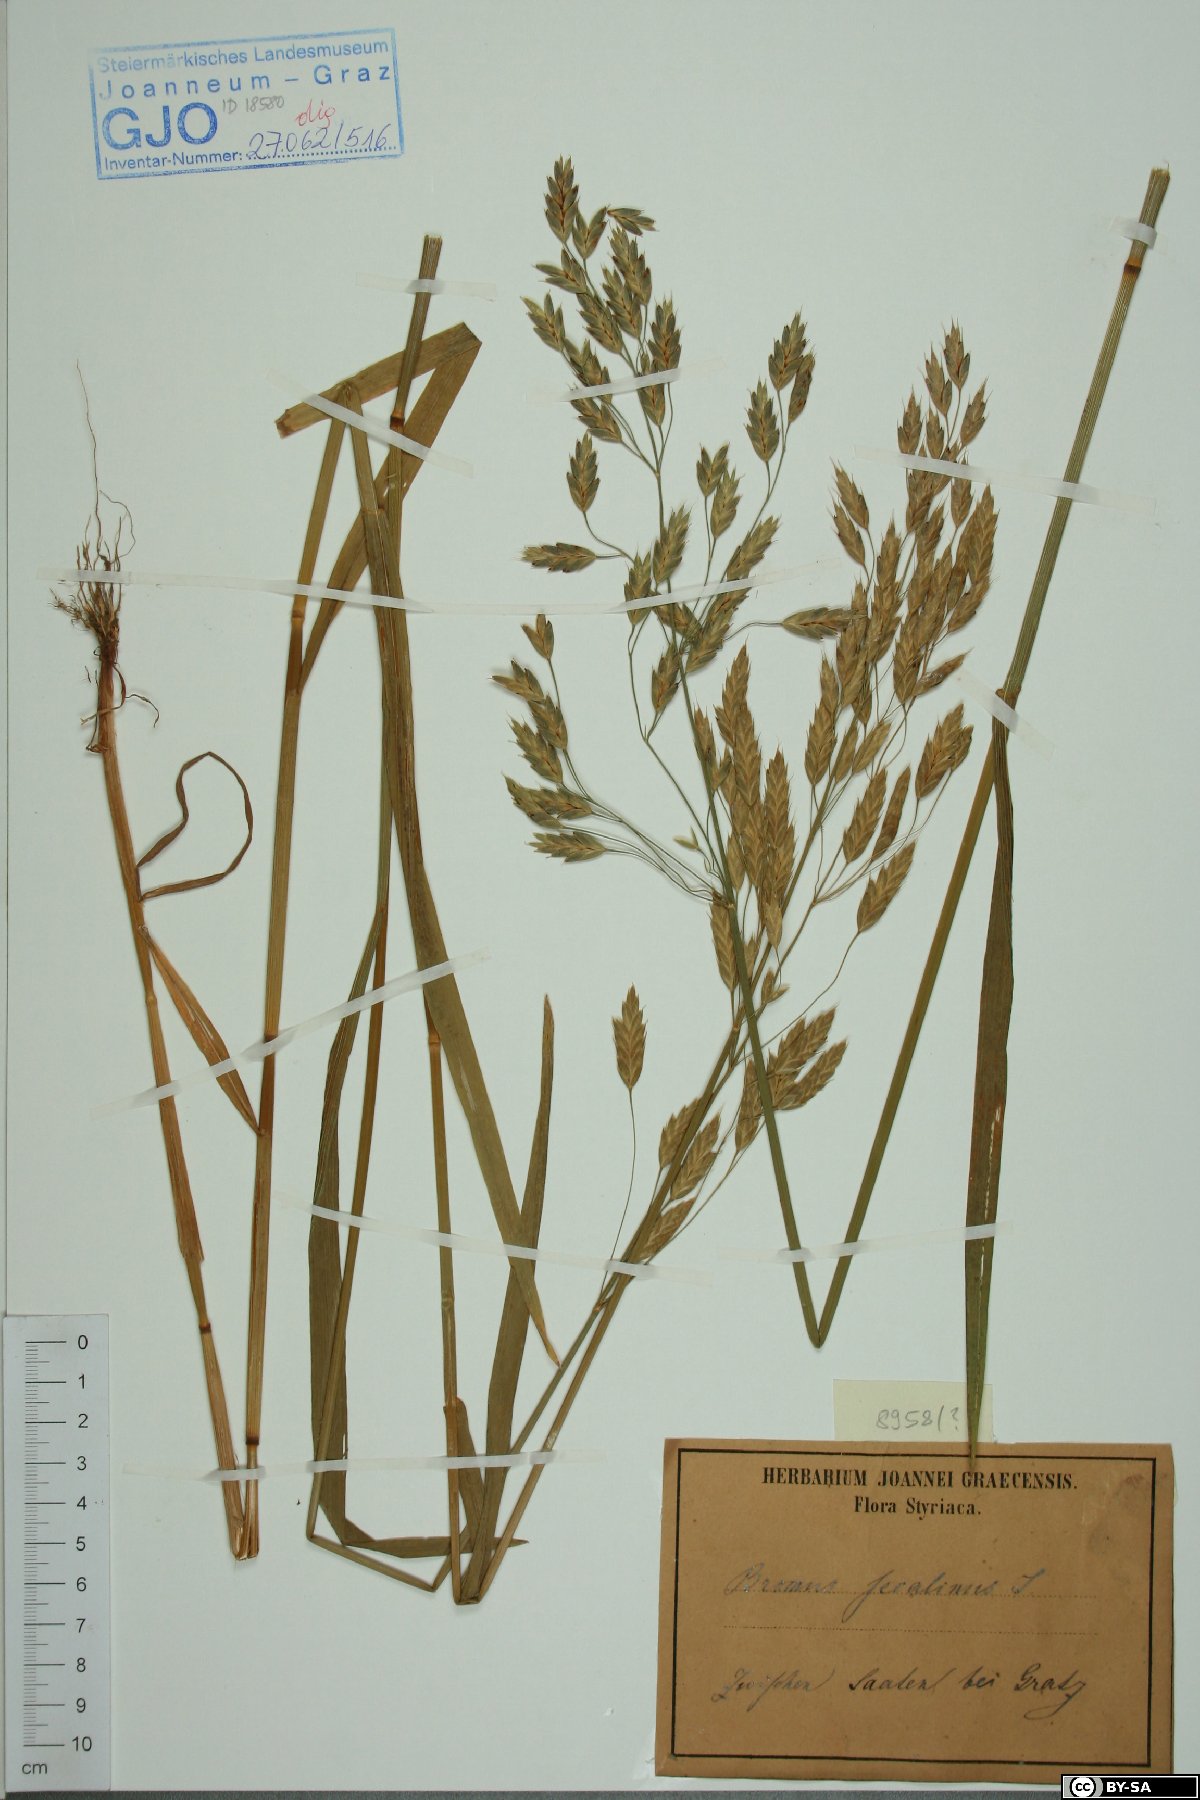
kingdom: Plantae
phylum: Tracheophyta
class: Liliopsida
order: Poales
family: Poaceae
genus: Bromus
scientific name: Bromus secalinus
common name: Rye brome
